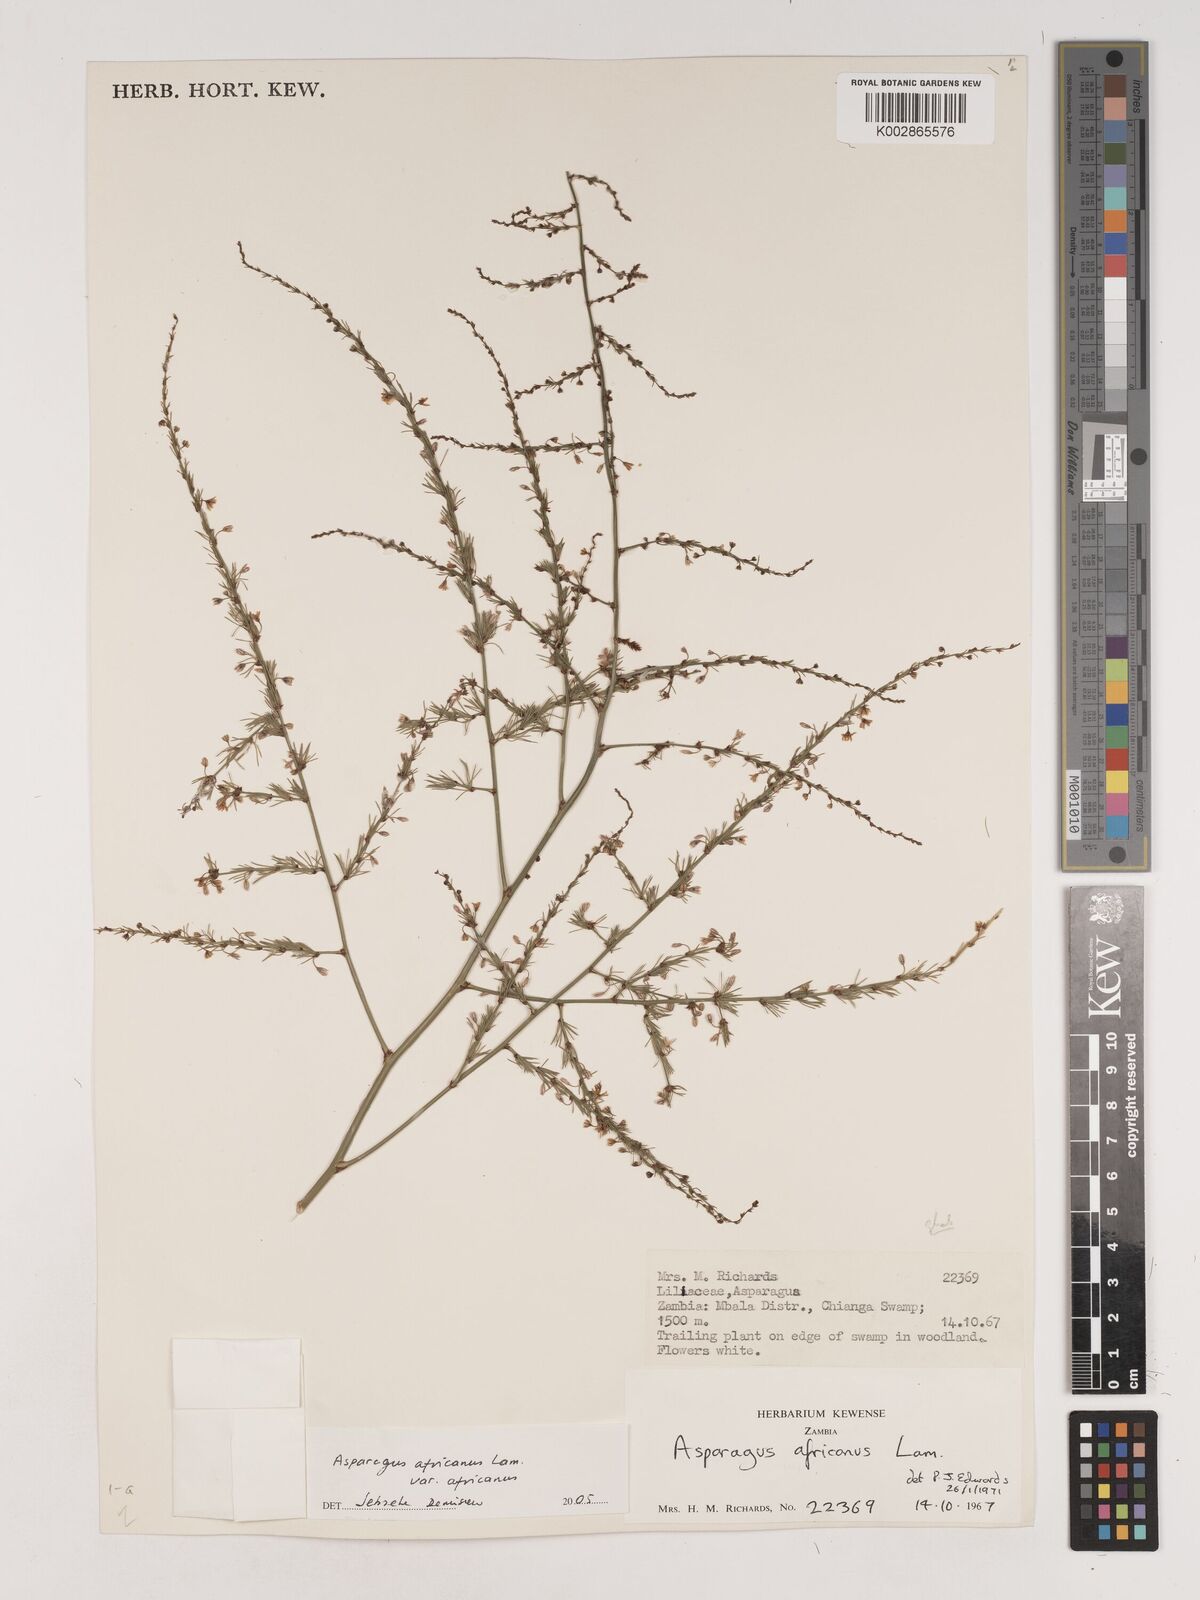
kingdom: Plantae
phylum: Tracheophyta
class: Liliopsida
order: Asparagales
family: Asparagaceae
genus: Asparagus
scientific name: Asparagus
